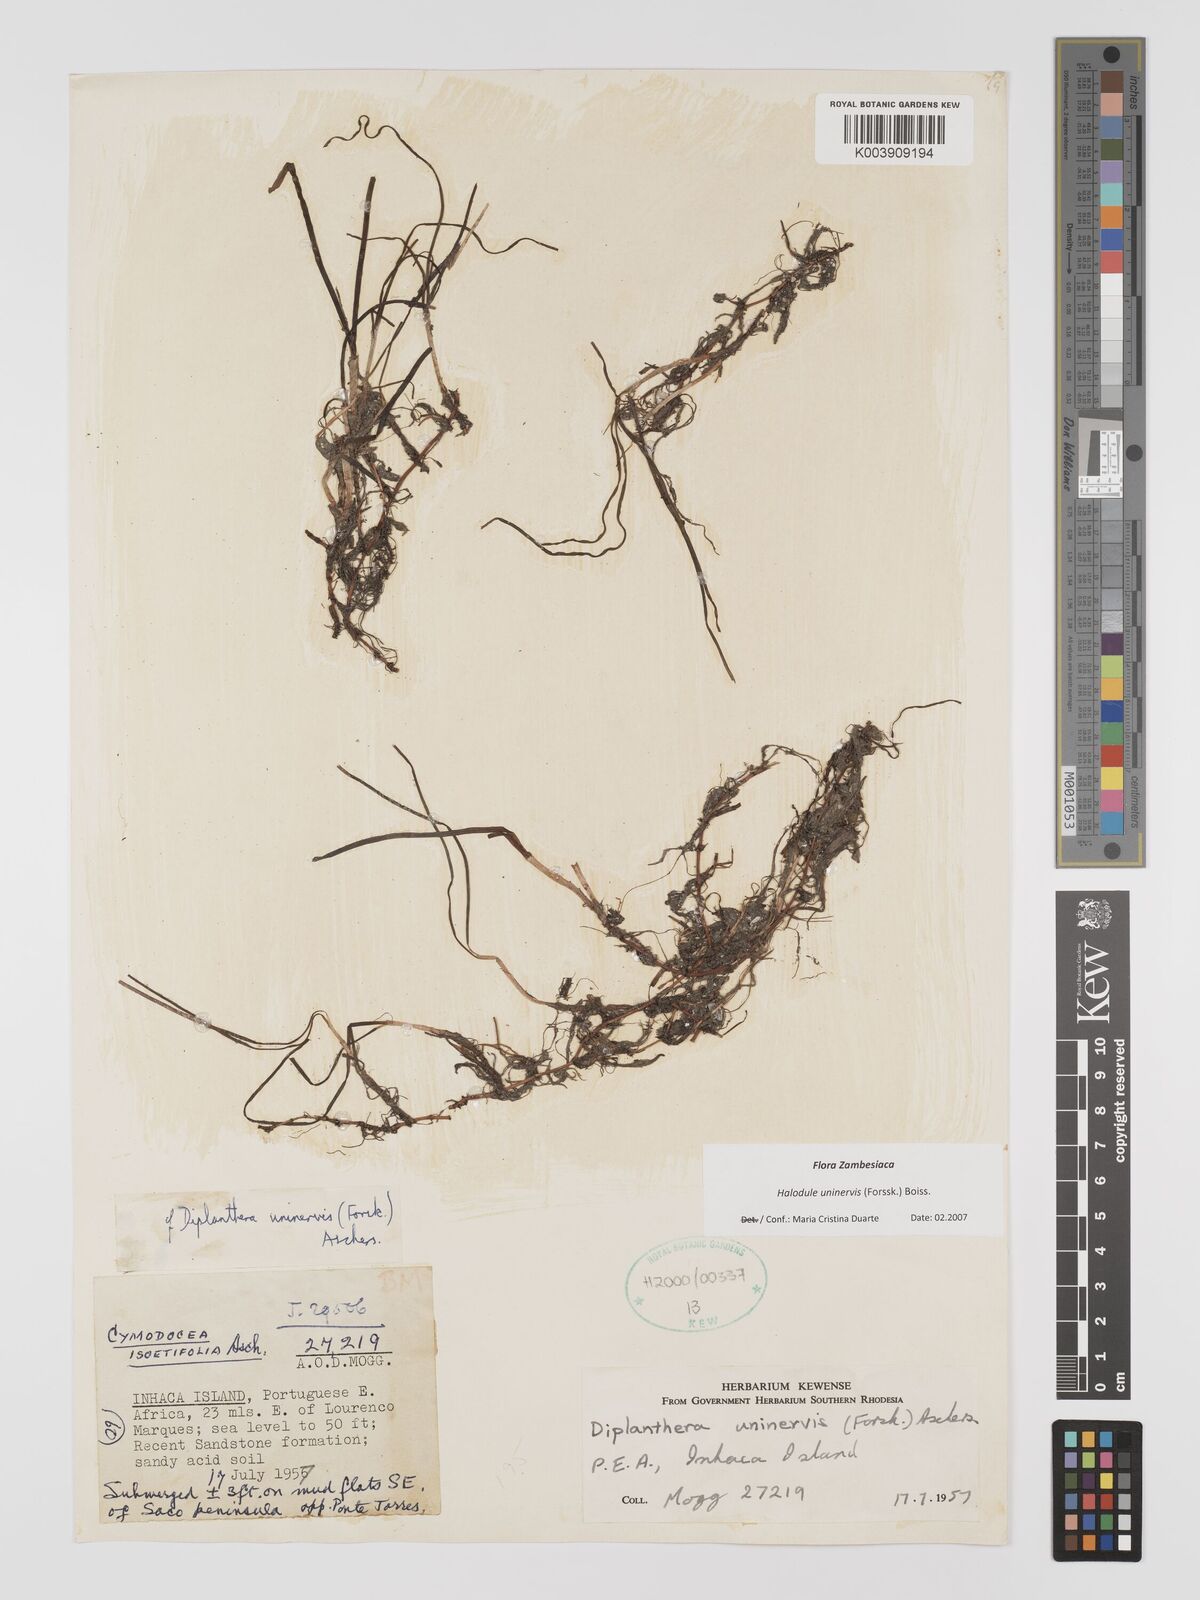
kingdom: Plantae
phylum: Tracheophyta
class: Liliopsida
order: Alismatales
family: Cymodoceaceae
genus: Halodule
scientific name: Halodule uninervis
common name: Narrowleaf seagrass
